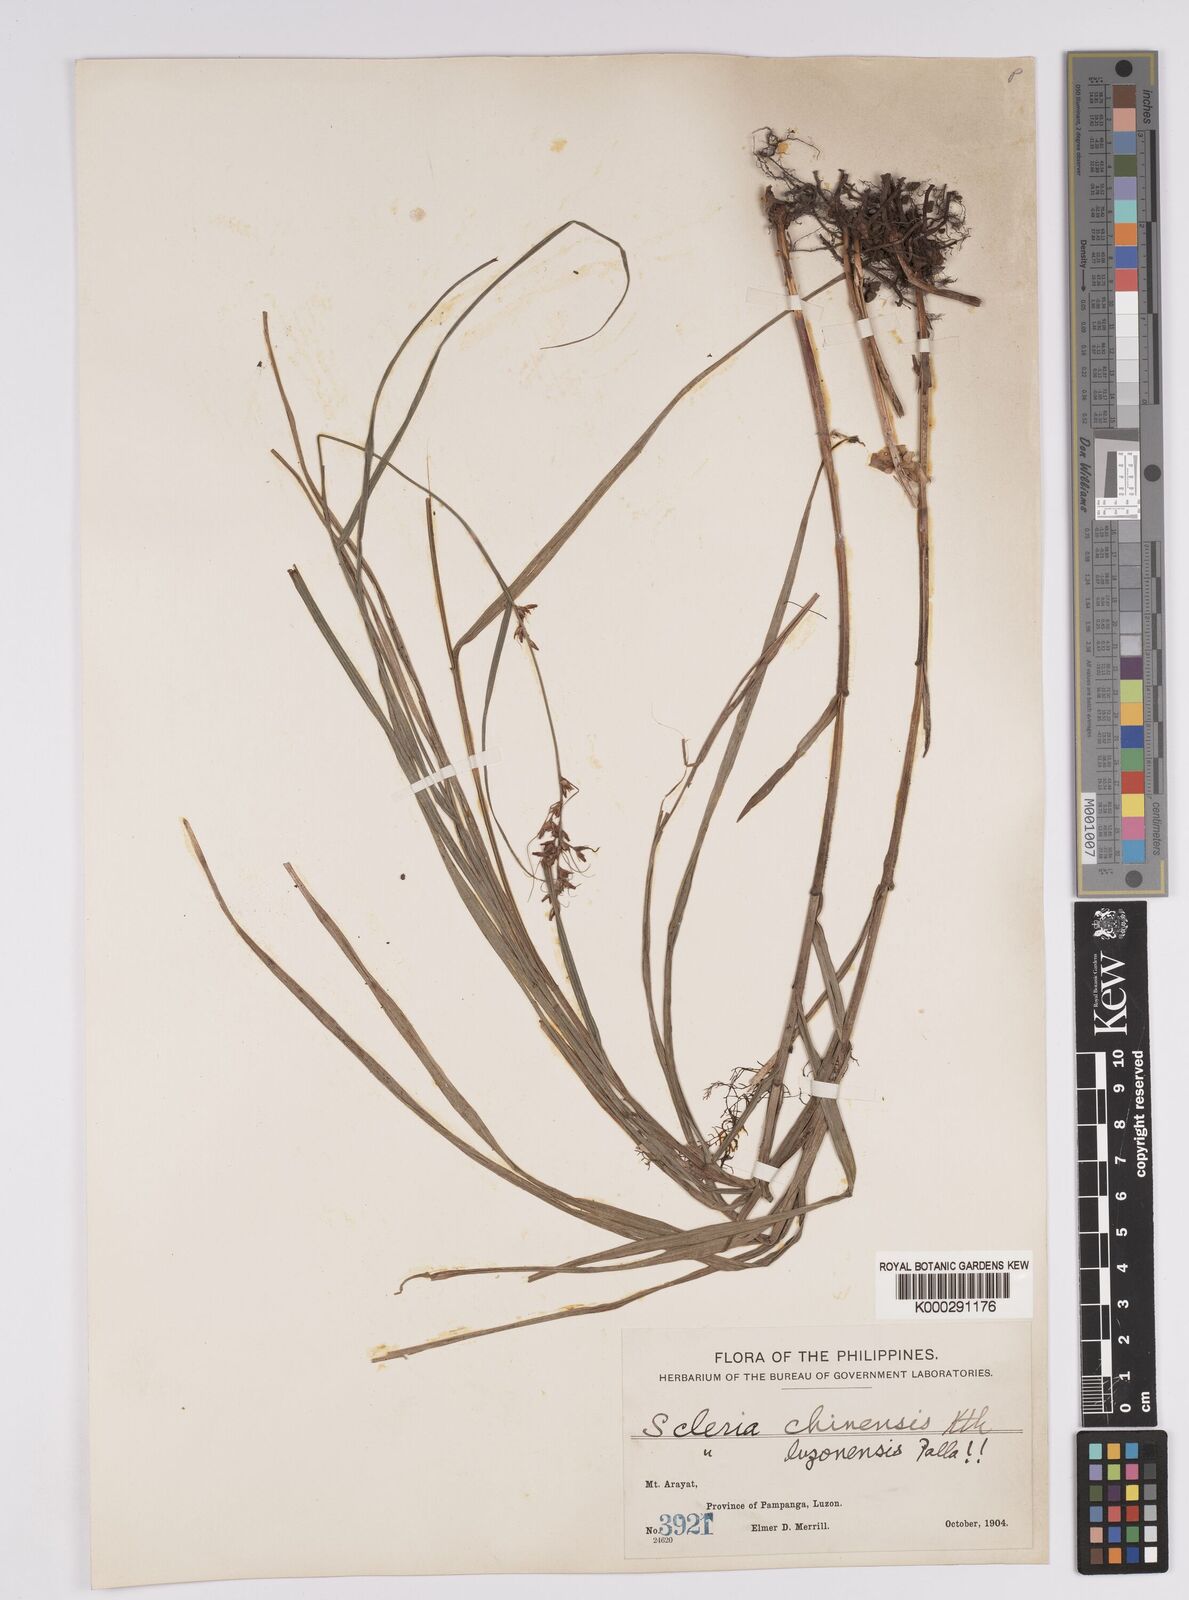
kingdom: Plantae
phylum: Tracheophyta
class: Liliopsida
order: Poales
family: Cyperaceae
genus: Scleria
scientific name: Scleria ciliaris
